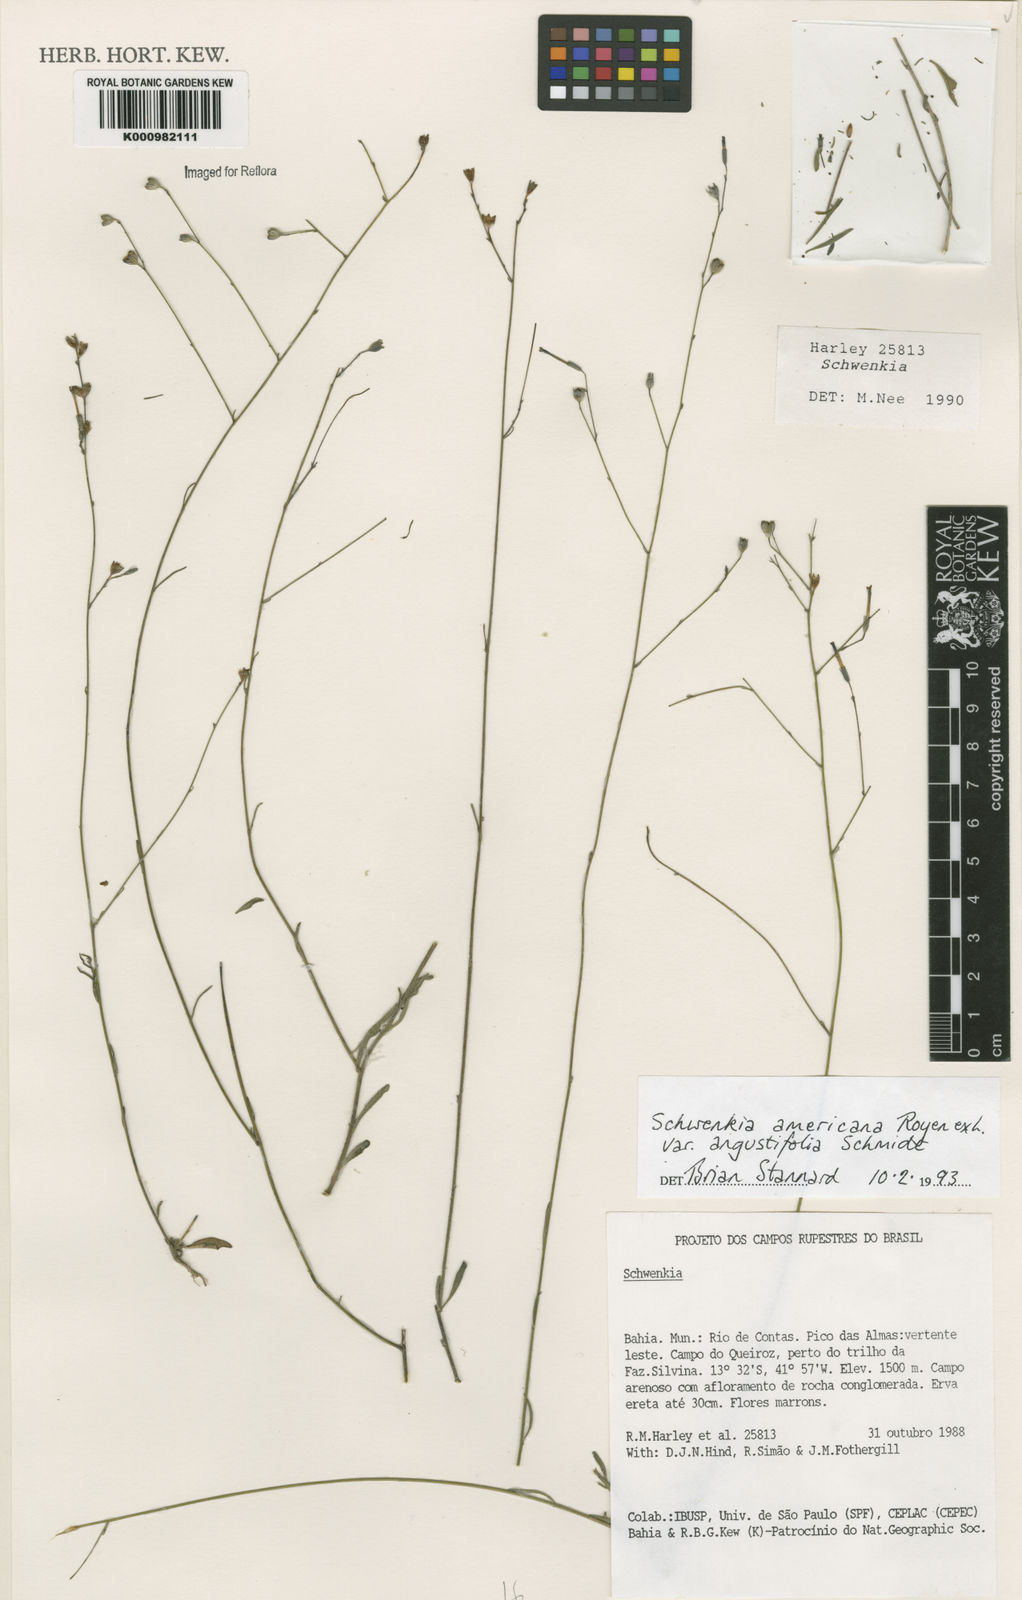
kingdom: Plantae
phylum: Tracheophyta
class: Magnoliopsida
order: Solanales
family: Solanaceae
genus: Schwenckia
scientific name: Schwenckia americana
